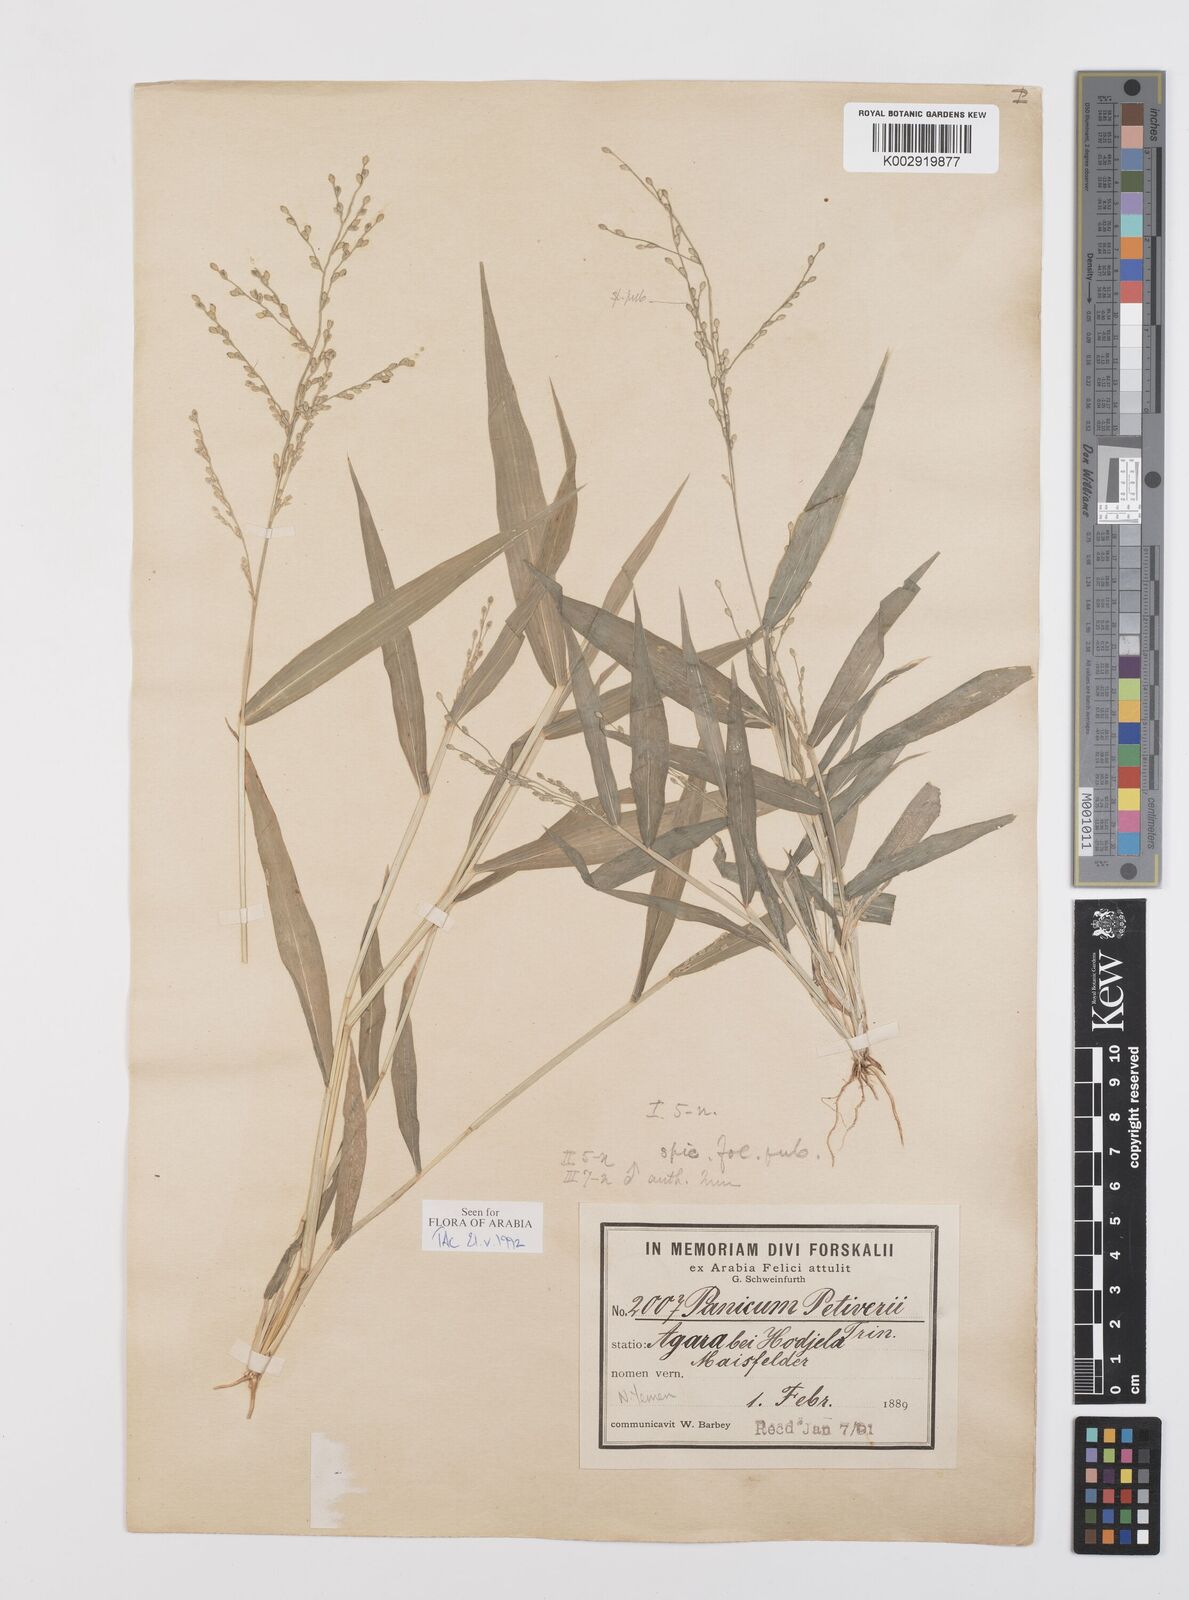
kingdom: Plantae
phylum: Tracheophyta
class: Liliopsida
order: Poales
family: Poaceae
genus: Urochloa
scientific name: Urochloa deflexa
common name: Guinea millet
